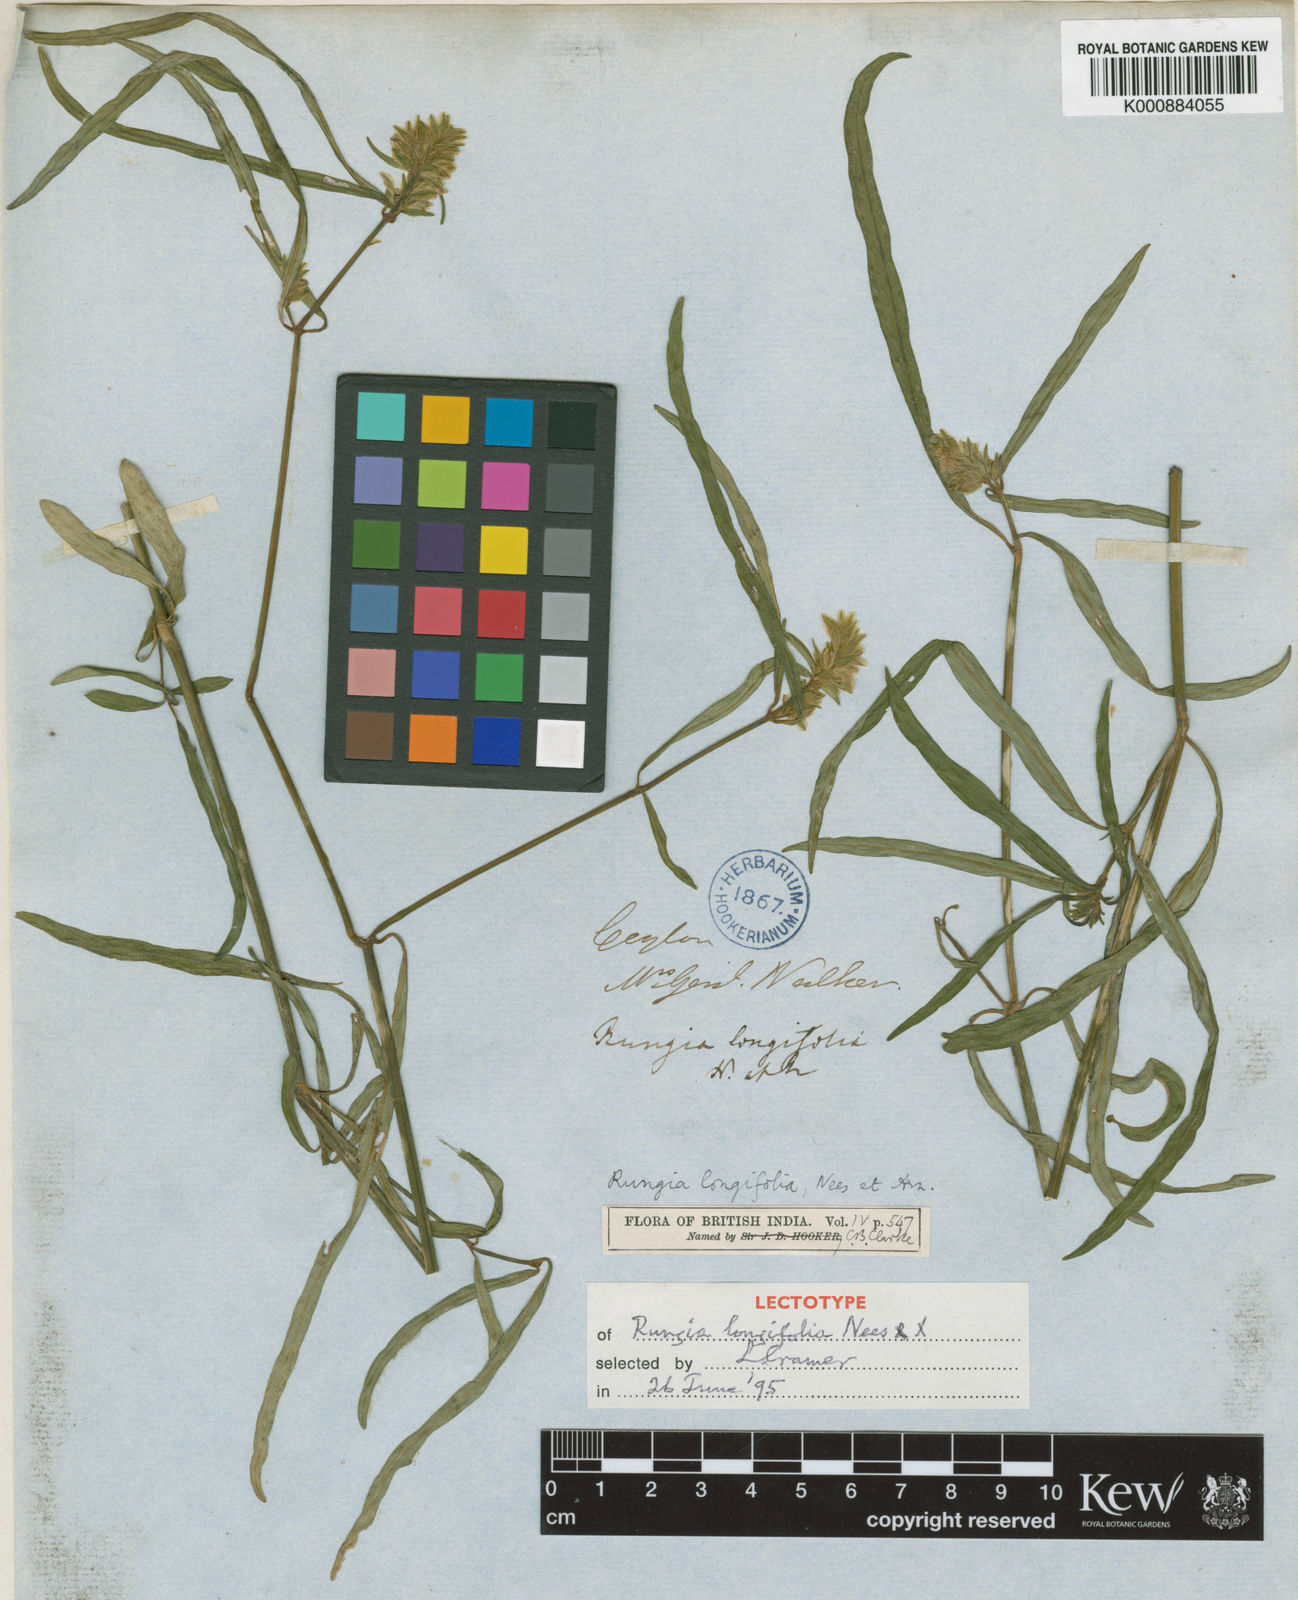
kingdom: Plantae
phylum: Tracheophyta
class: Magnoliopsida
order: Lamiales
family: Acanthaceae
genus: Justicia
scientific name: Justicia
